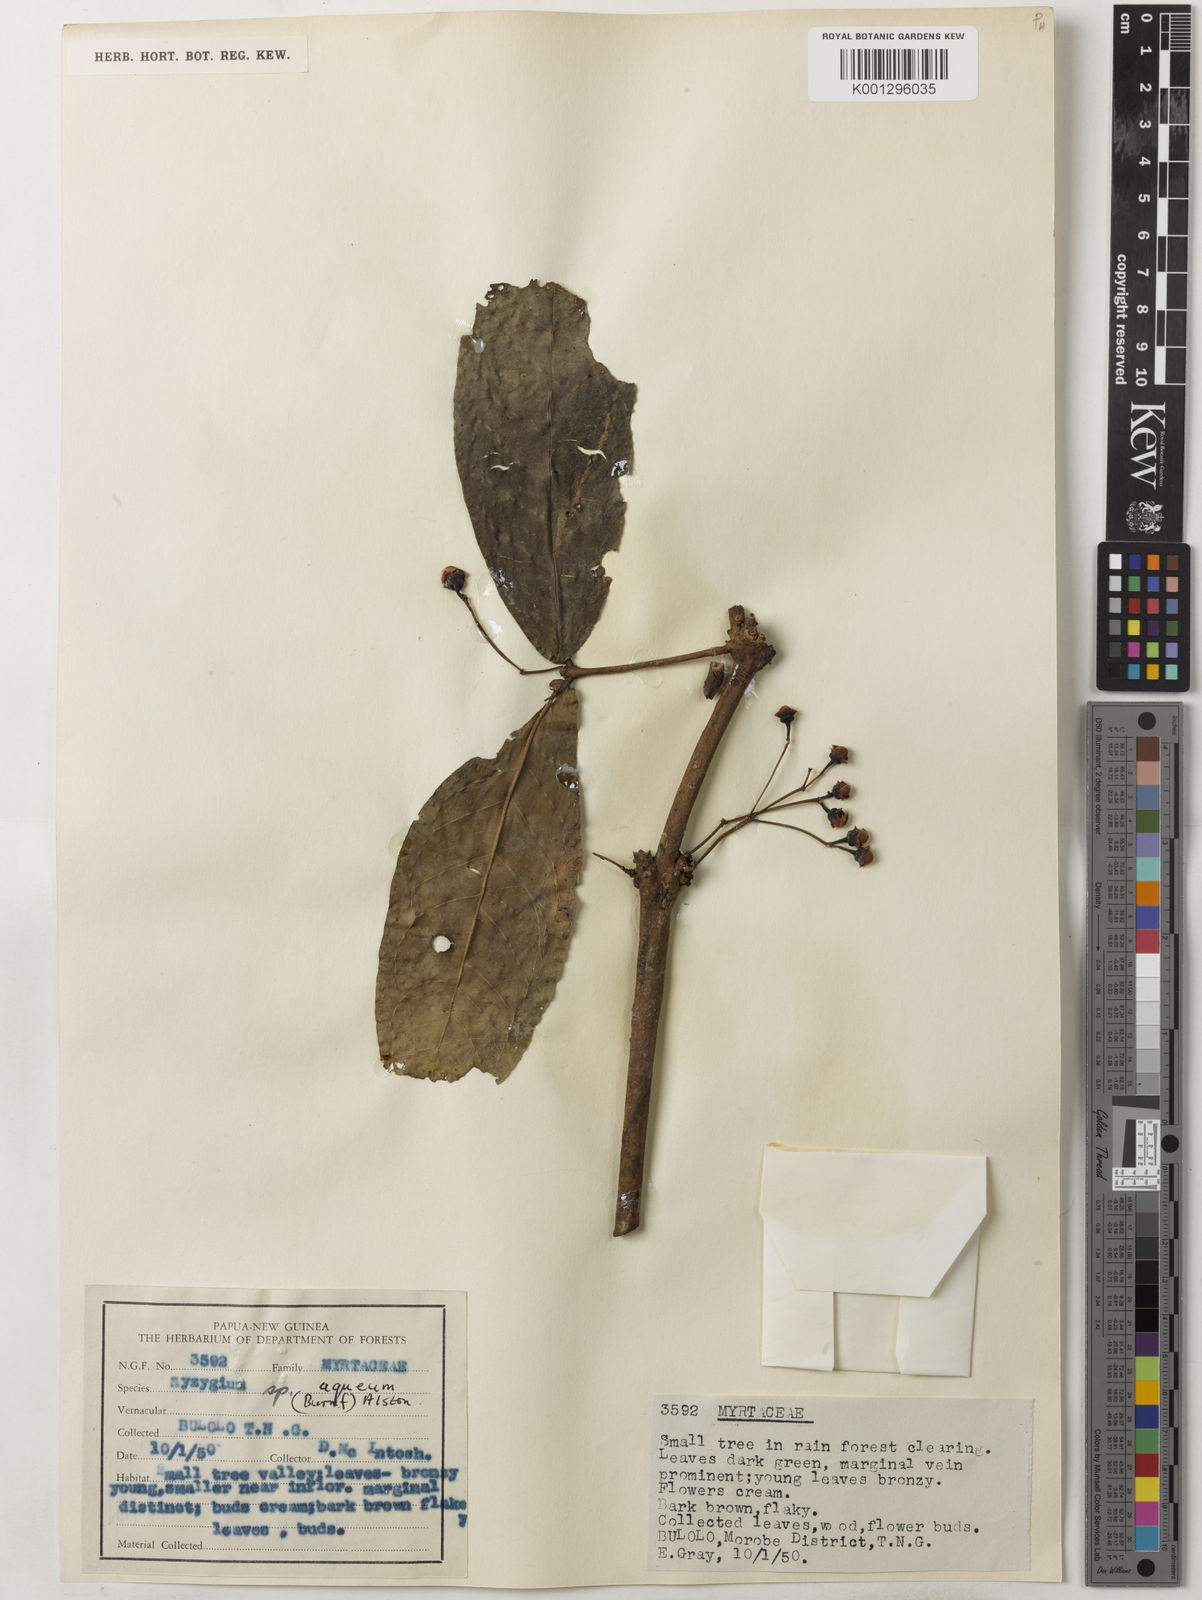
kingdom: Plantae
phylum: Tracheophyta
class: Magnoliopsida
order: Myrtales
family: Myrtaceae
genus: Syzygium
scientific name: Syzygium aqueum
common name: Water-apple
